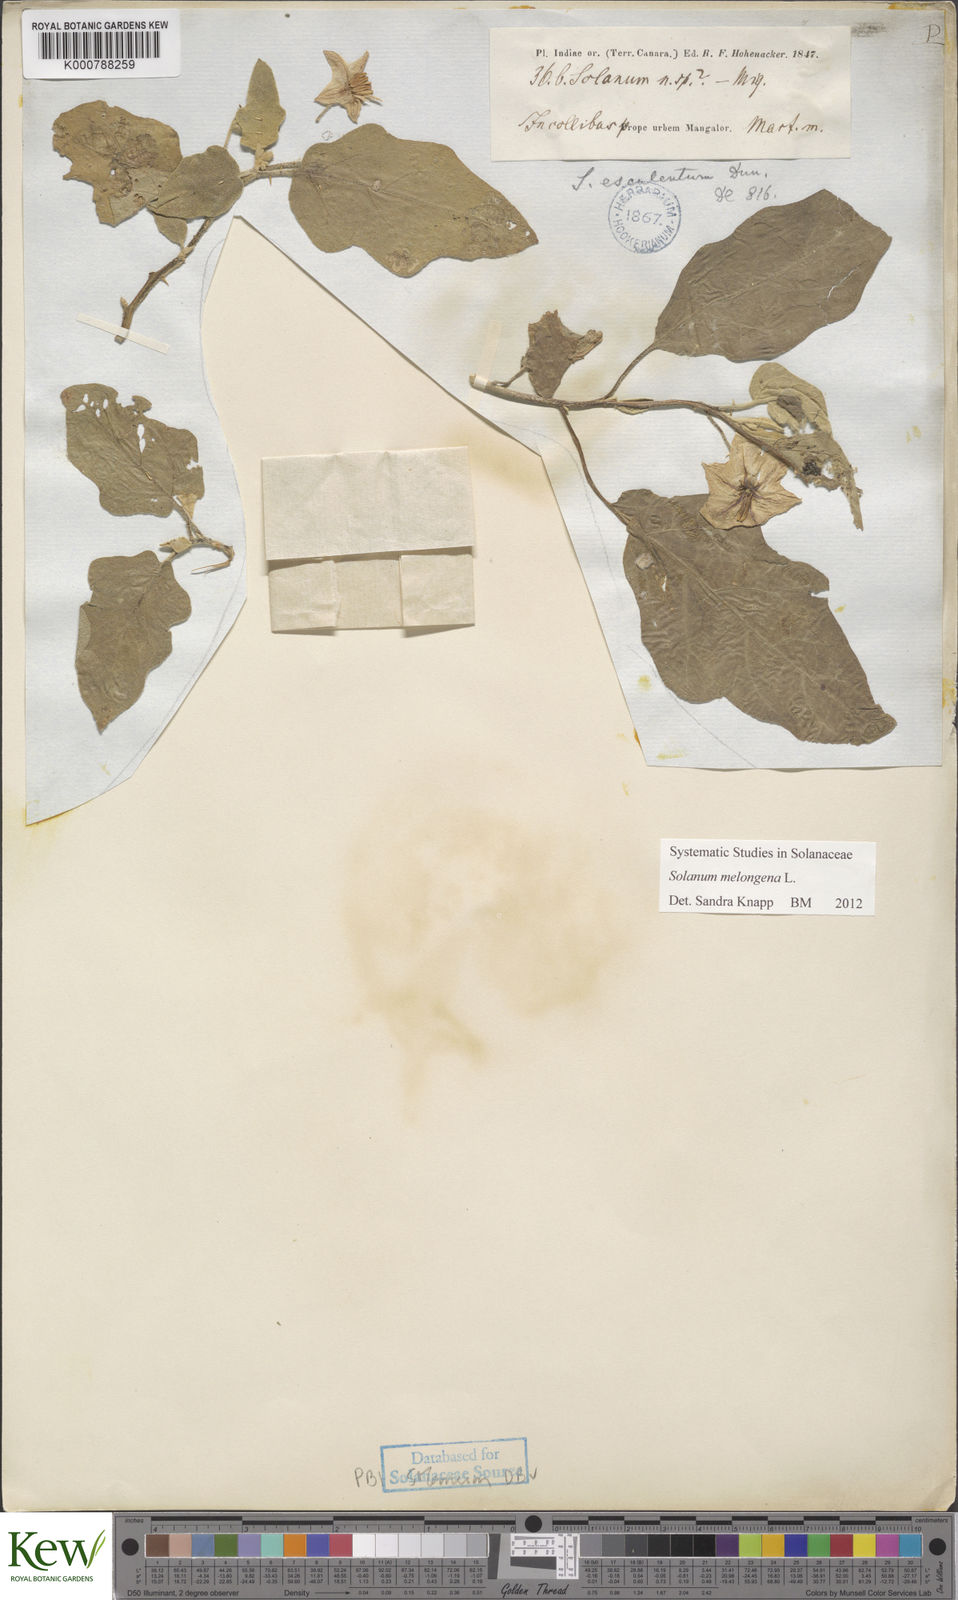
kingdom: Plantae
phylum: Tracheophyta
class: Magnoliopsida
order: Solanales
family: Solanaceae
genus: Solanum
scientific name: Solanum melongena
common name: Eggplant
